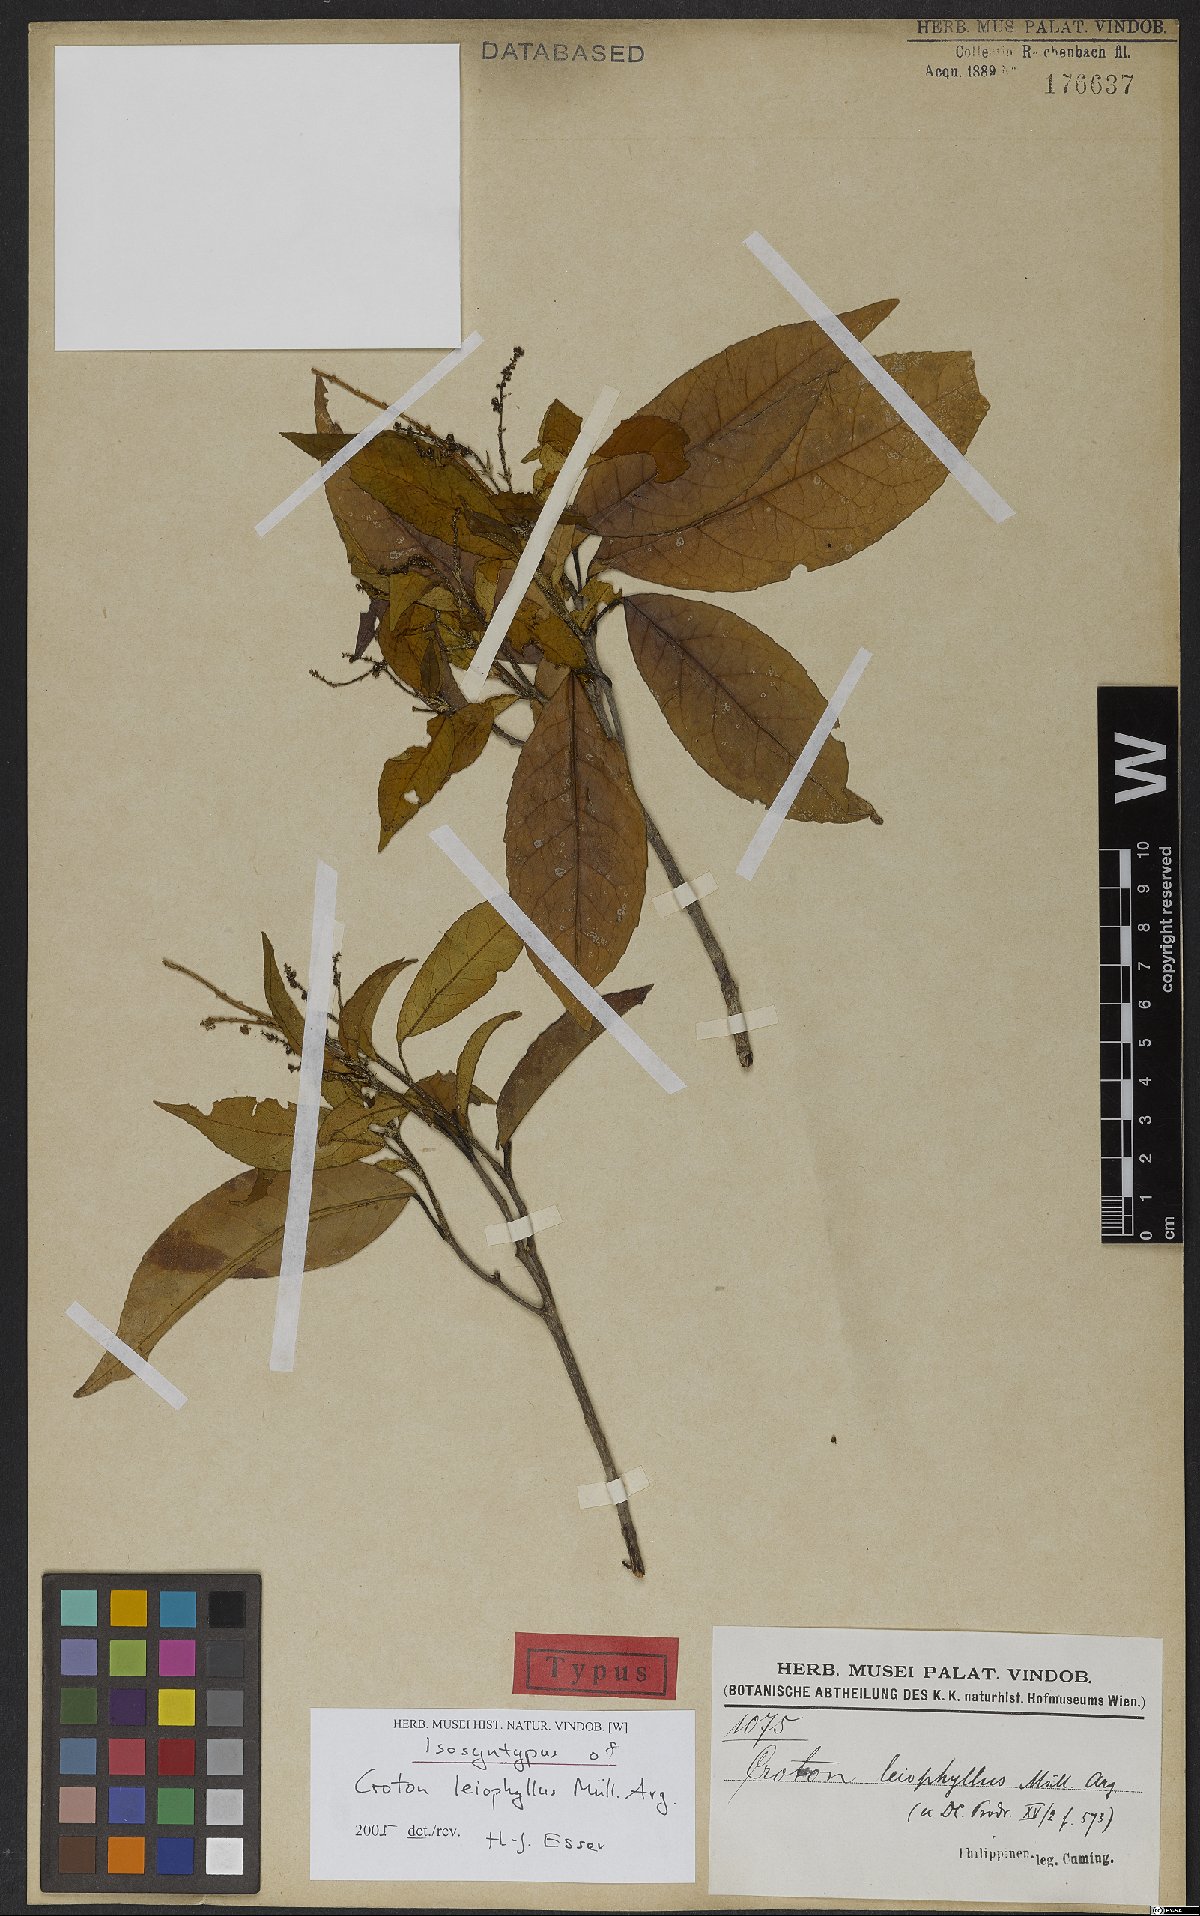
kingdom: Plantae
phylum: Tracheophyta
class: Magnoliopsida
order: Malpighiales
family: Euphorbiaceae
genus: Croton
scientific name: Croton leiophyllus
